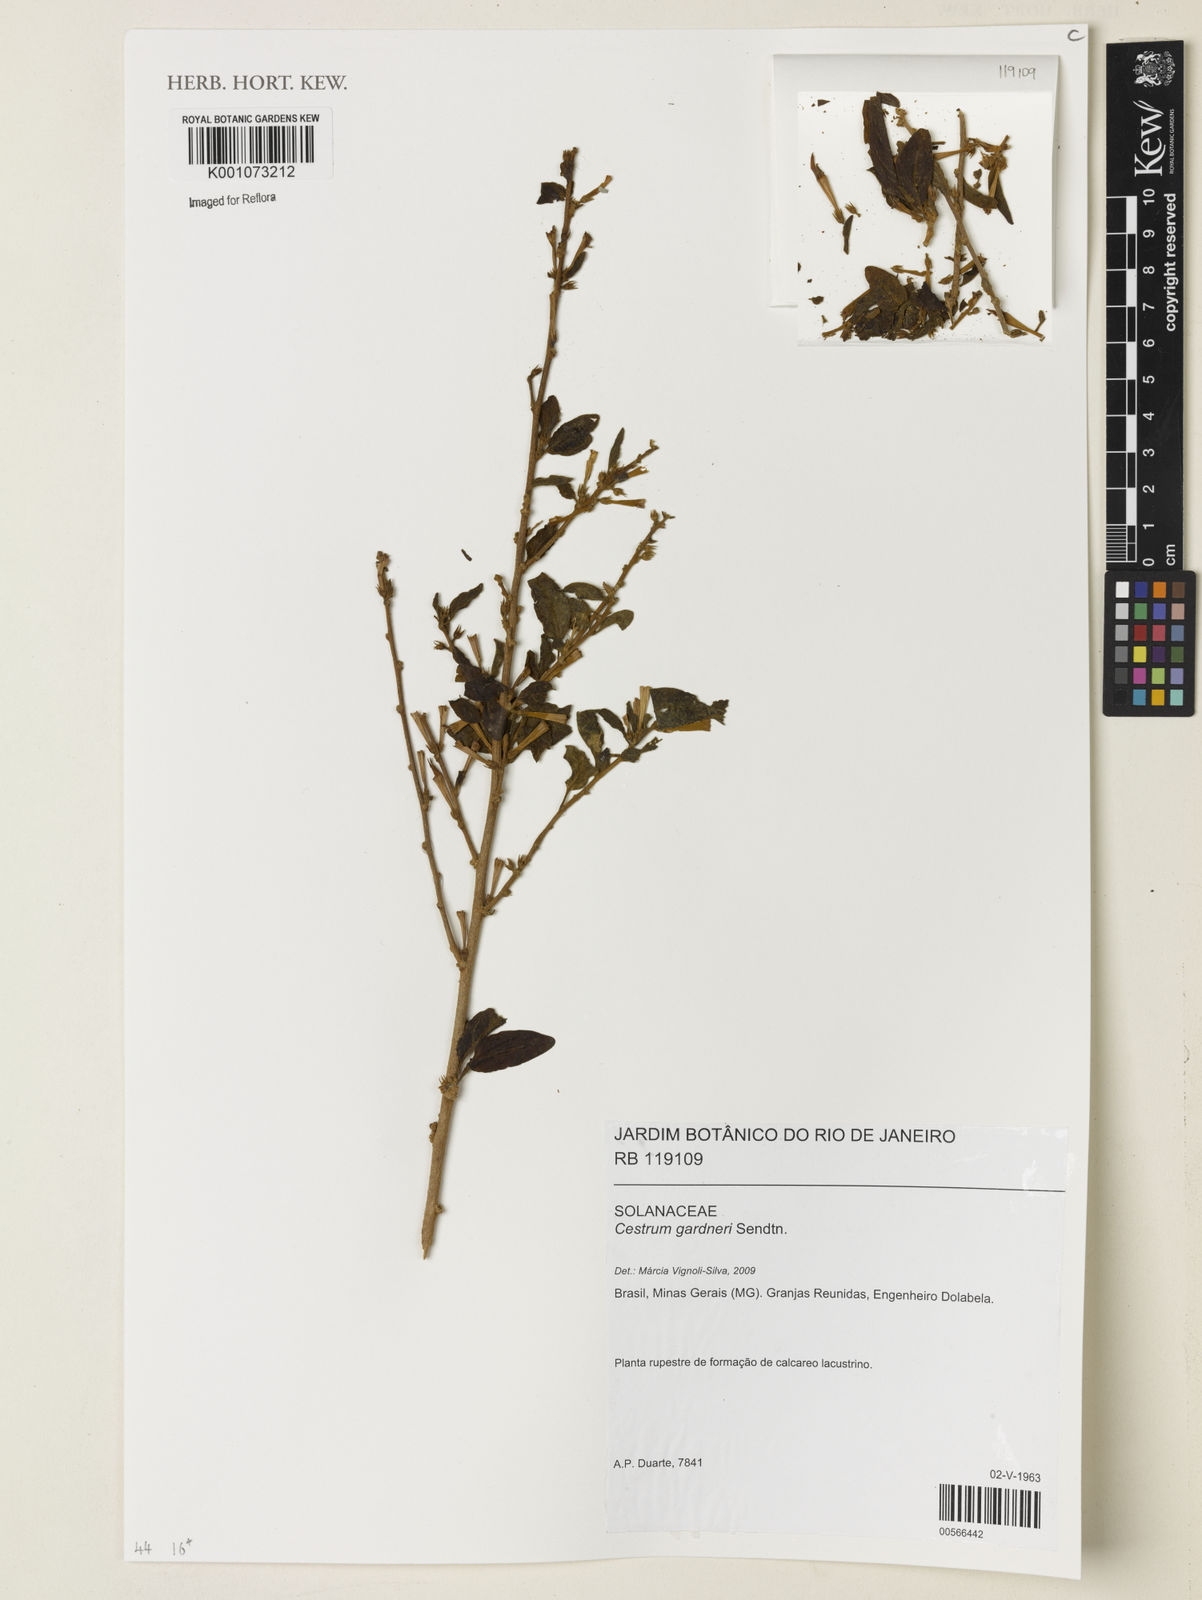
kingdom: Plantae
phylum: Tracheophyta
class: Magnoliopsida
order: Solanales
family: Solanaceae
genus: Cestrum
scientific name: Cestrum gardneri
